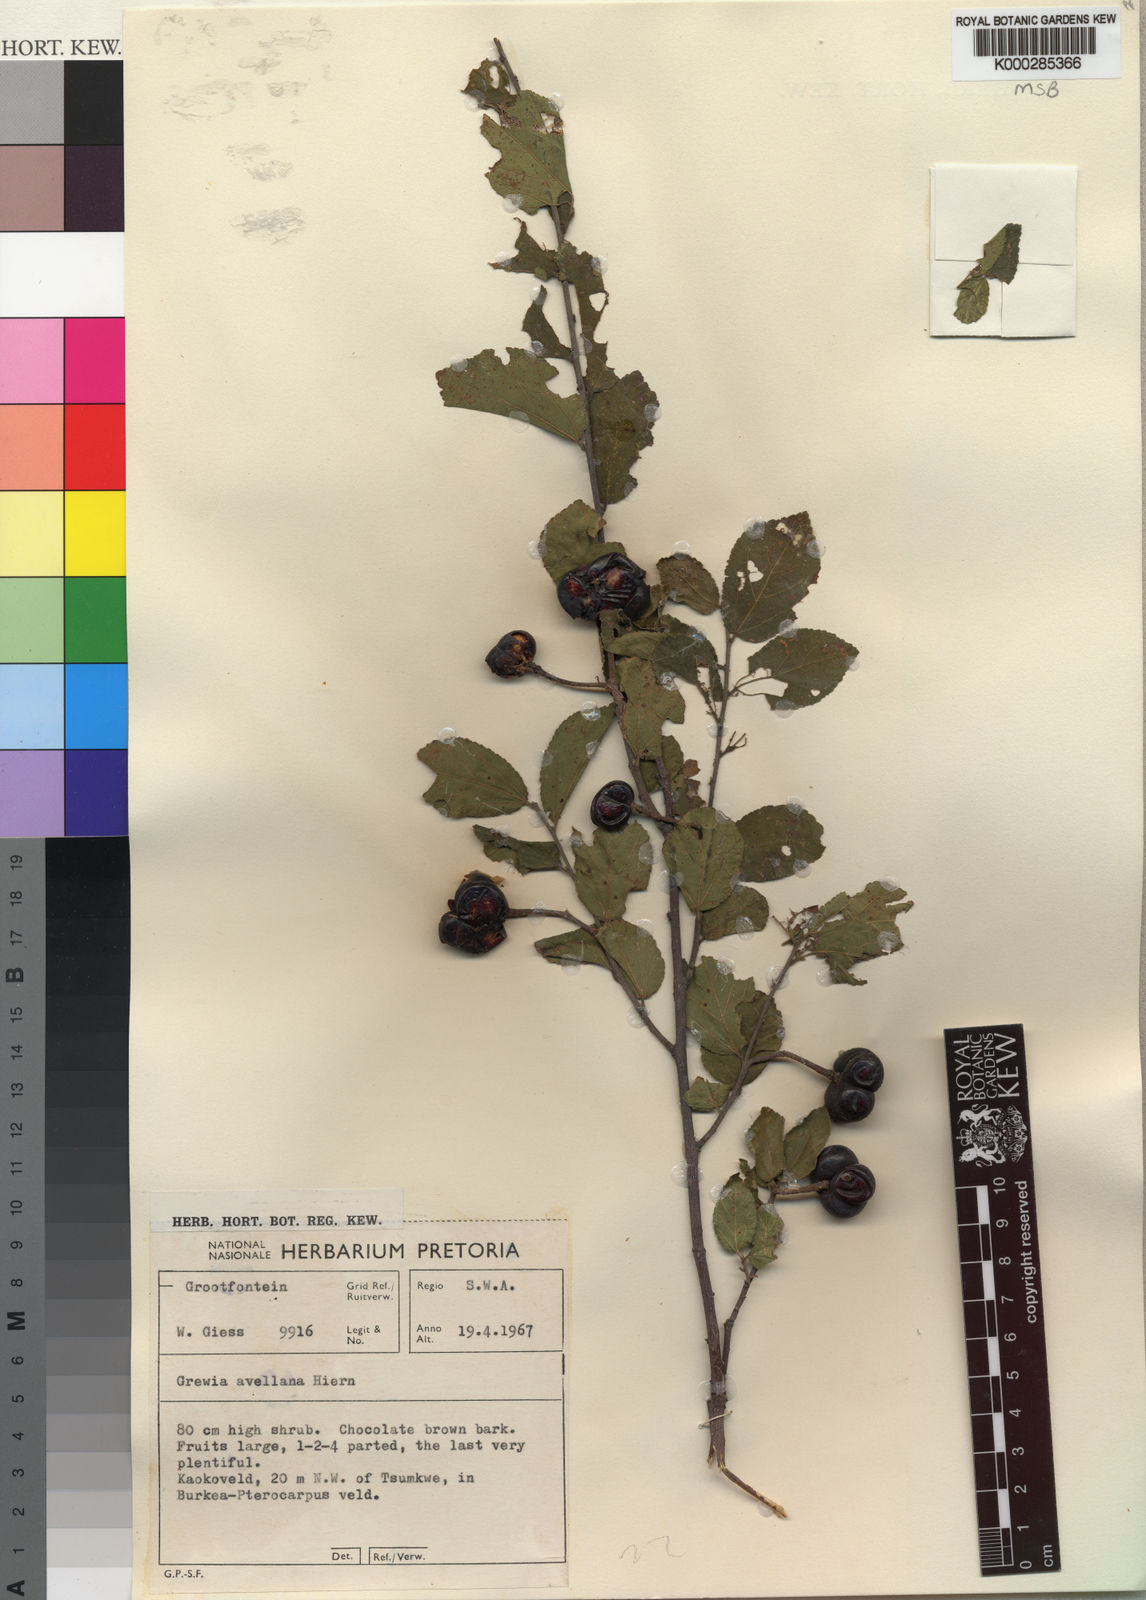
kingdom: Plantae
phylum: Tracheophyta
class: Magnoliopsida
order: Malvales
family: Malvaceae
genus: Grewia
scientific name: Grewia avellana
